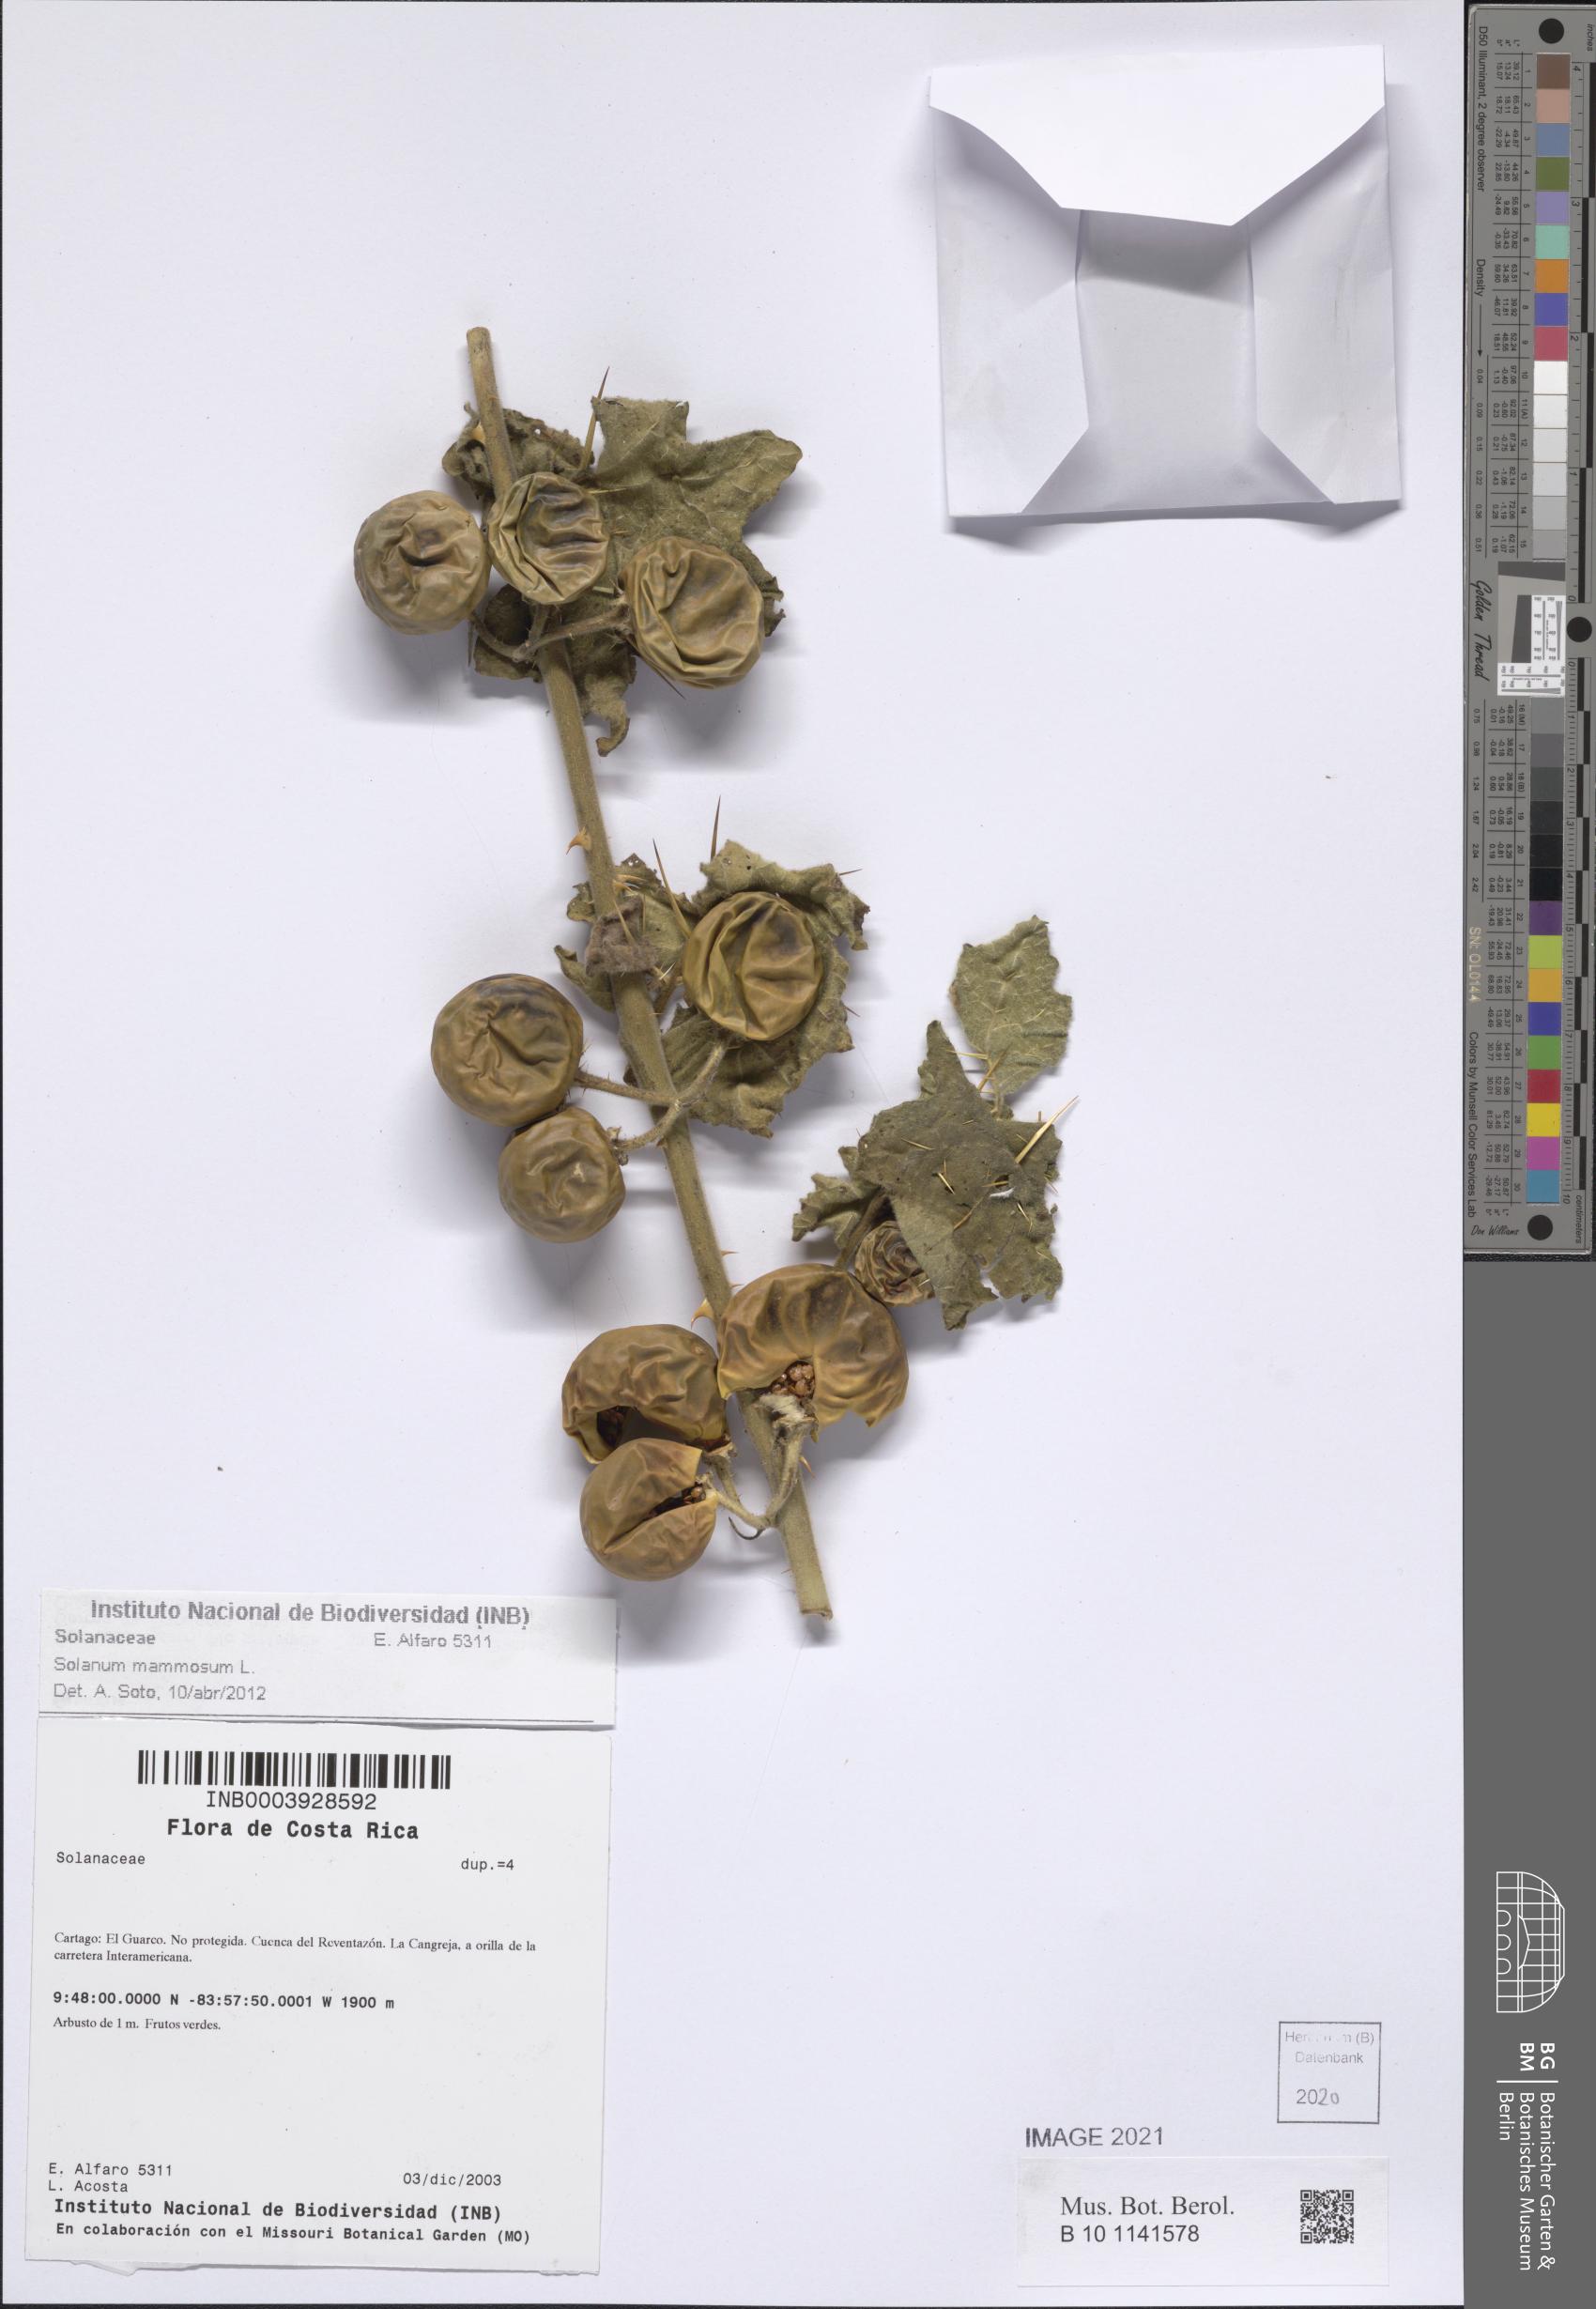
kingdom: Plantae
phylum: Tracheophyta
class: Magnoliopsida
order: Solanales
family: Solanaceae
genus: Solanum
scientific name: Solanum mammosum
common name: Nipple fruit
